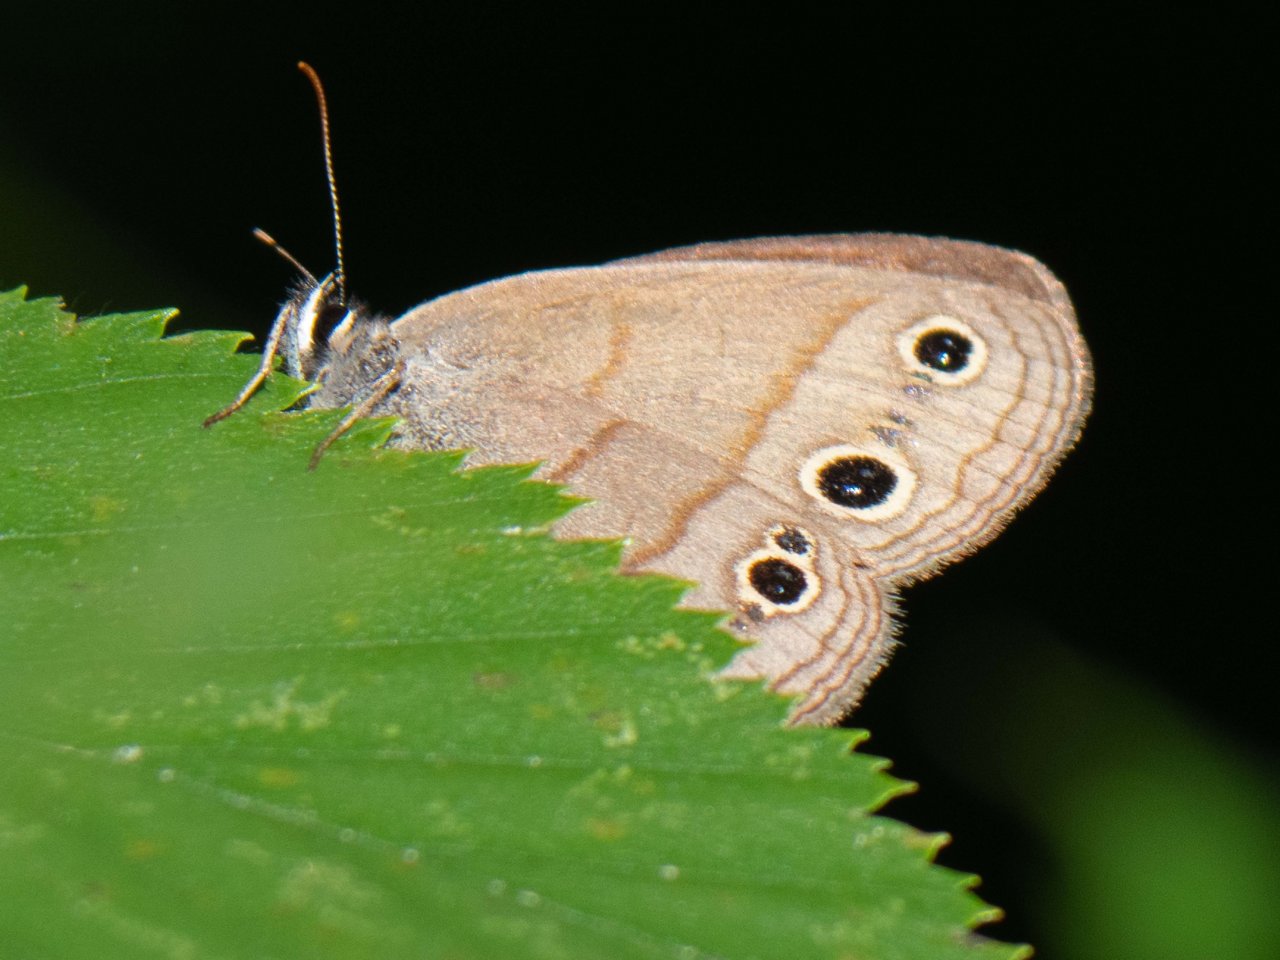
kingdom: Animalia
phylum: Arthropoda
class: Insecta
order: Lepidoptera
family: Nymphalidae
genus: Euptychia
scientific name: Euptychia cymela
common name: Little Wood Satyr
